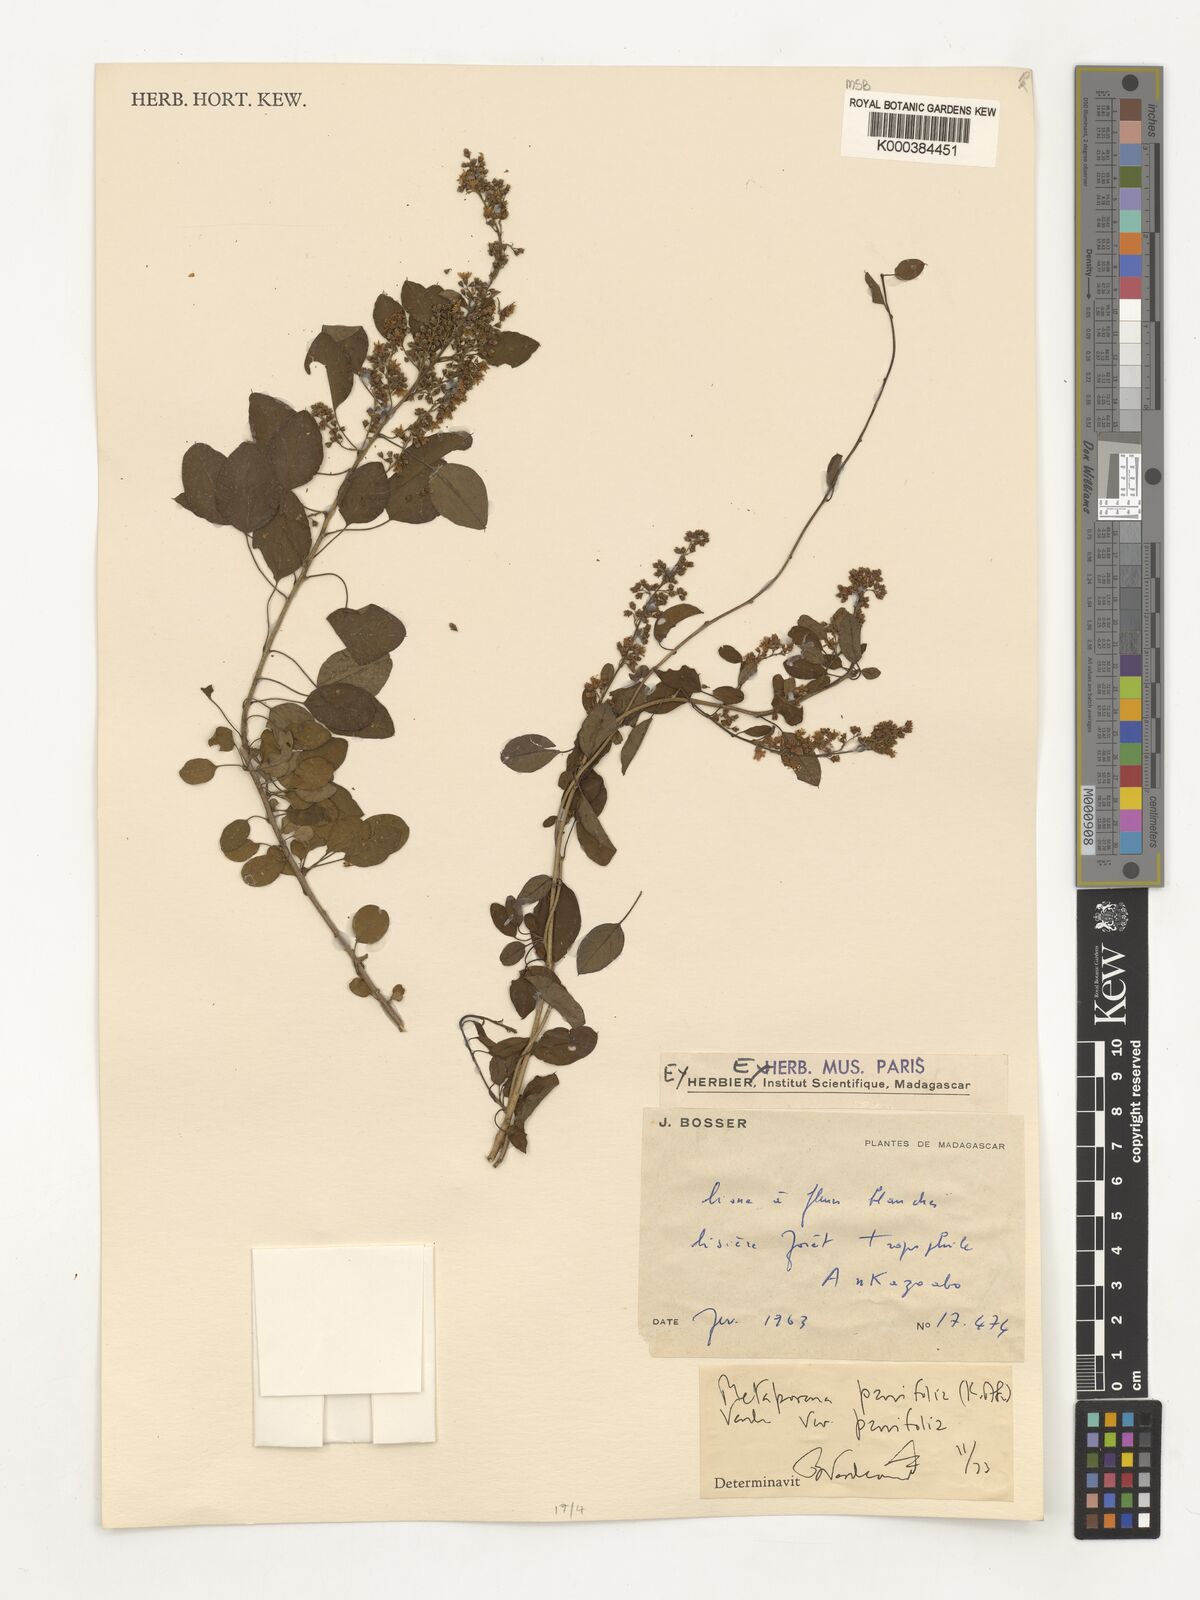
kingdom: Plantae
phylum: Tracheophyta
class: Magnoliopsida
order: Solanales
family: Convolvulaceae
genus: Metaporana
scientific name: Metaporana parvifolia
